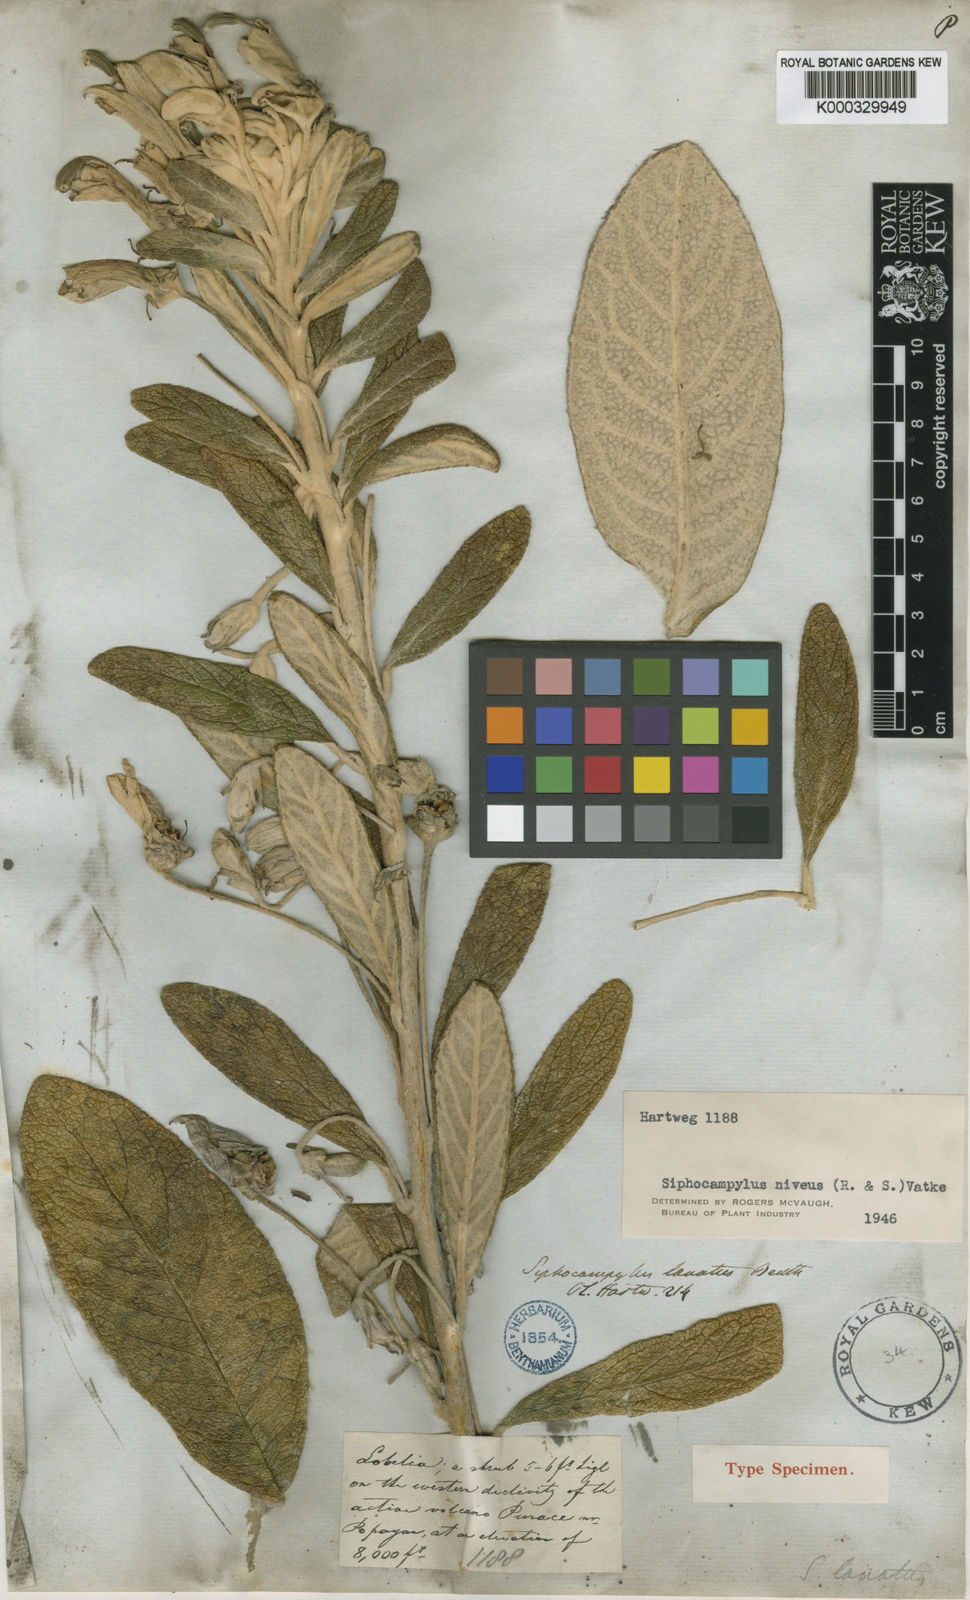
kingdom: Plantae
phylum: Tracheophyta
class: Magnoliopsida
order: Asterales
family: Campanulaceae
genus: Siphocampylus
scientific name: Siphocampylus niveus
